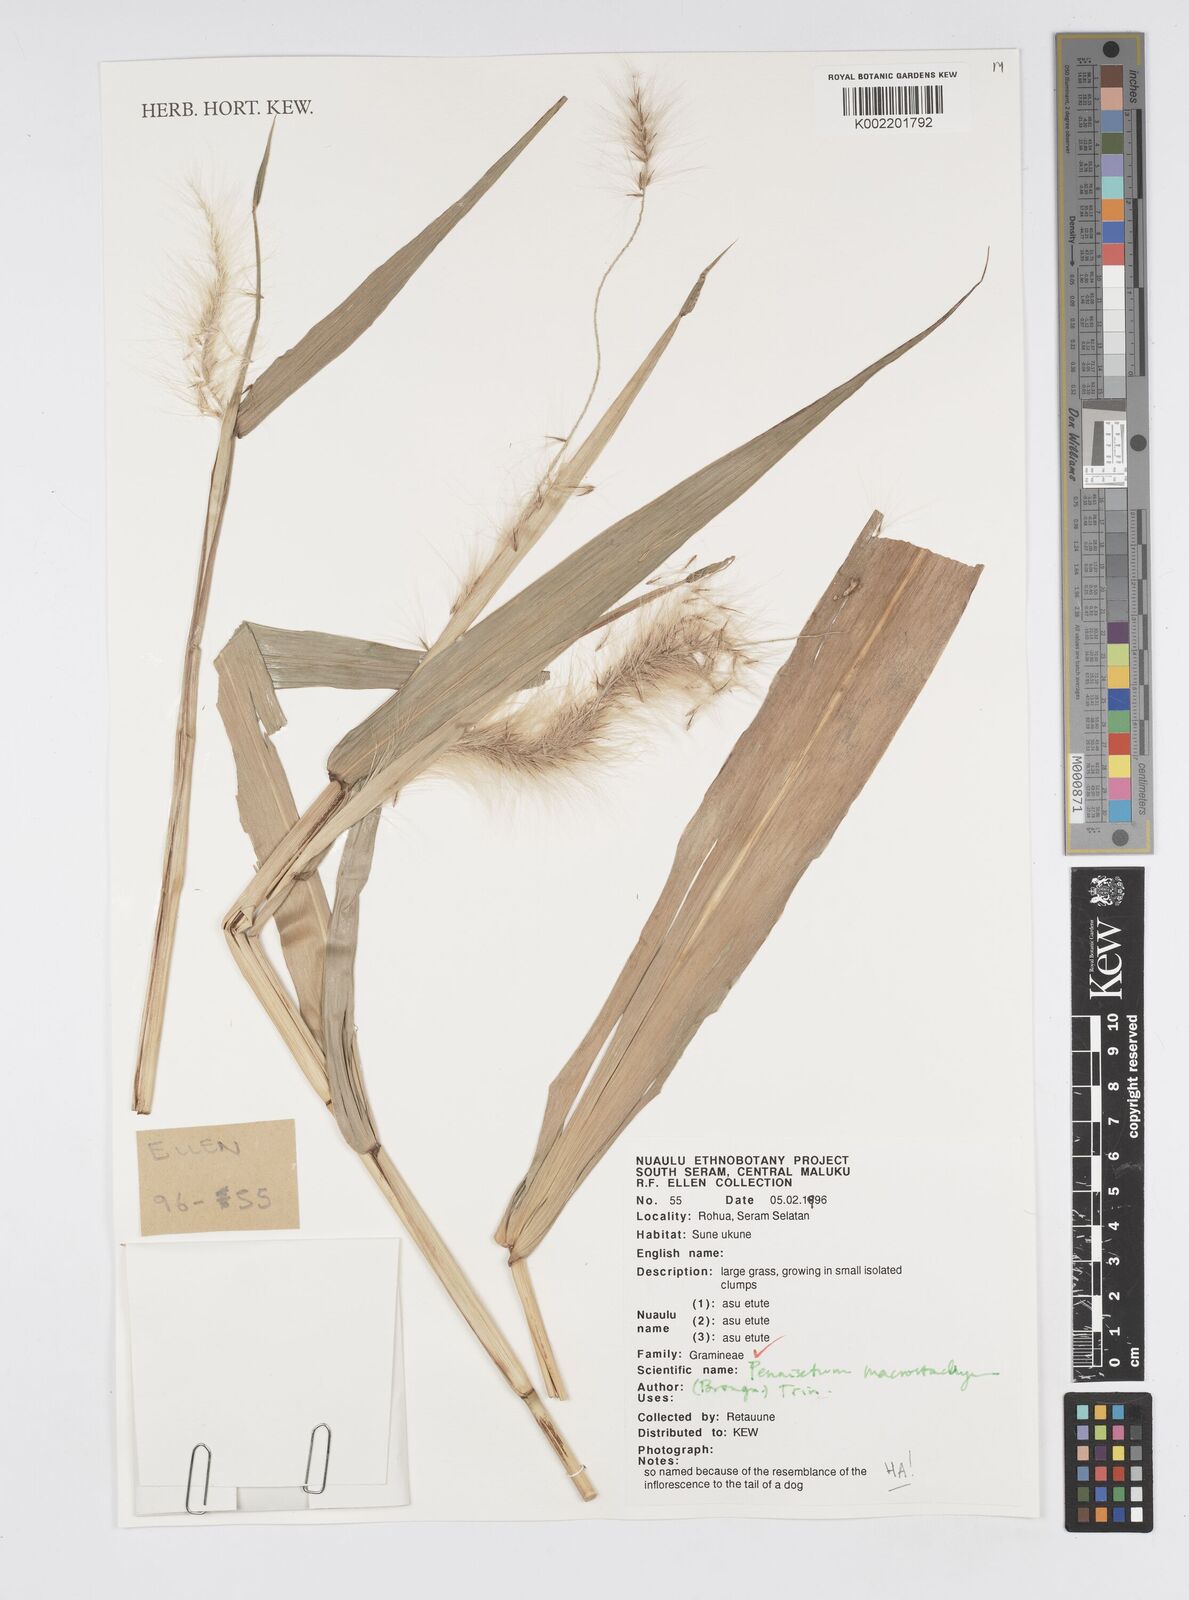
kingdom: Plantae
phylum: Tracheophyta
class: Liliopsida
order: Poales
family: Poaceae
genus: Cenchrus
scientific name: Cenchrus purpureus
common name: Elephant grass
